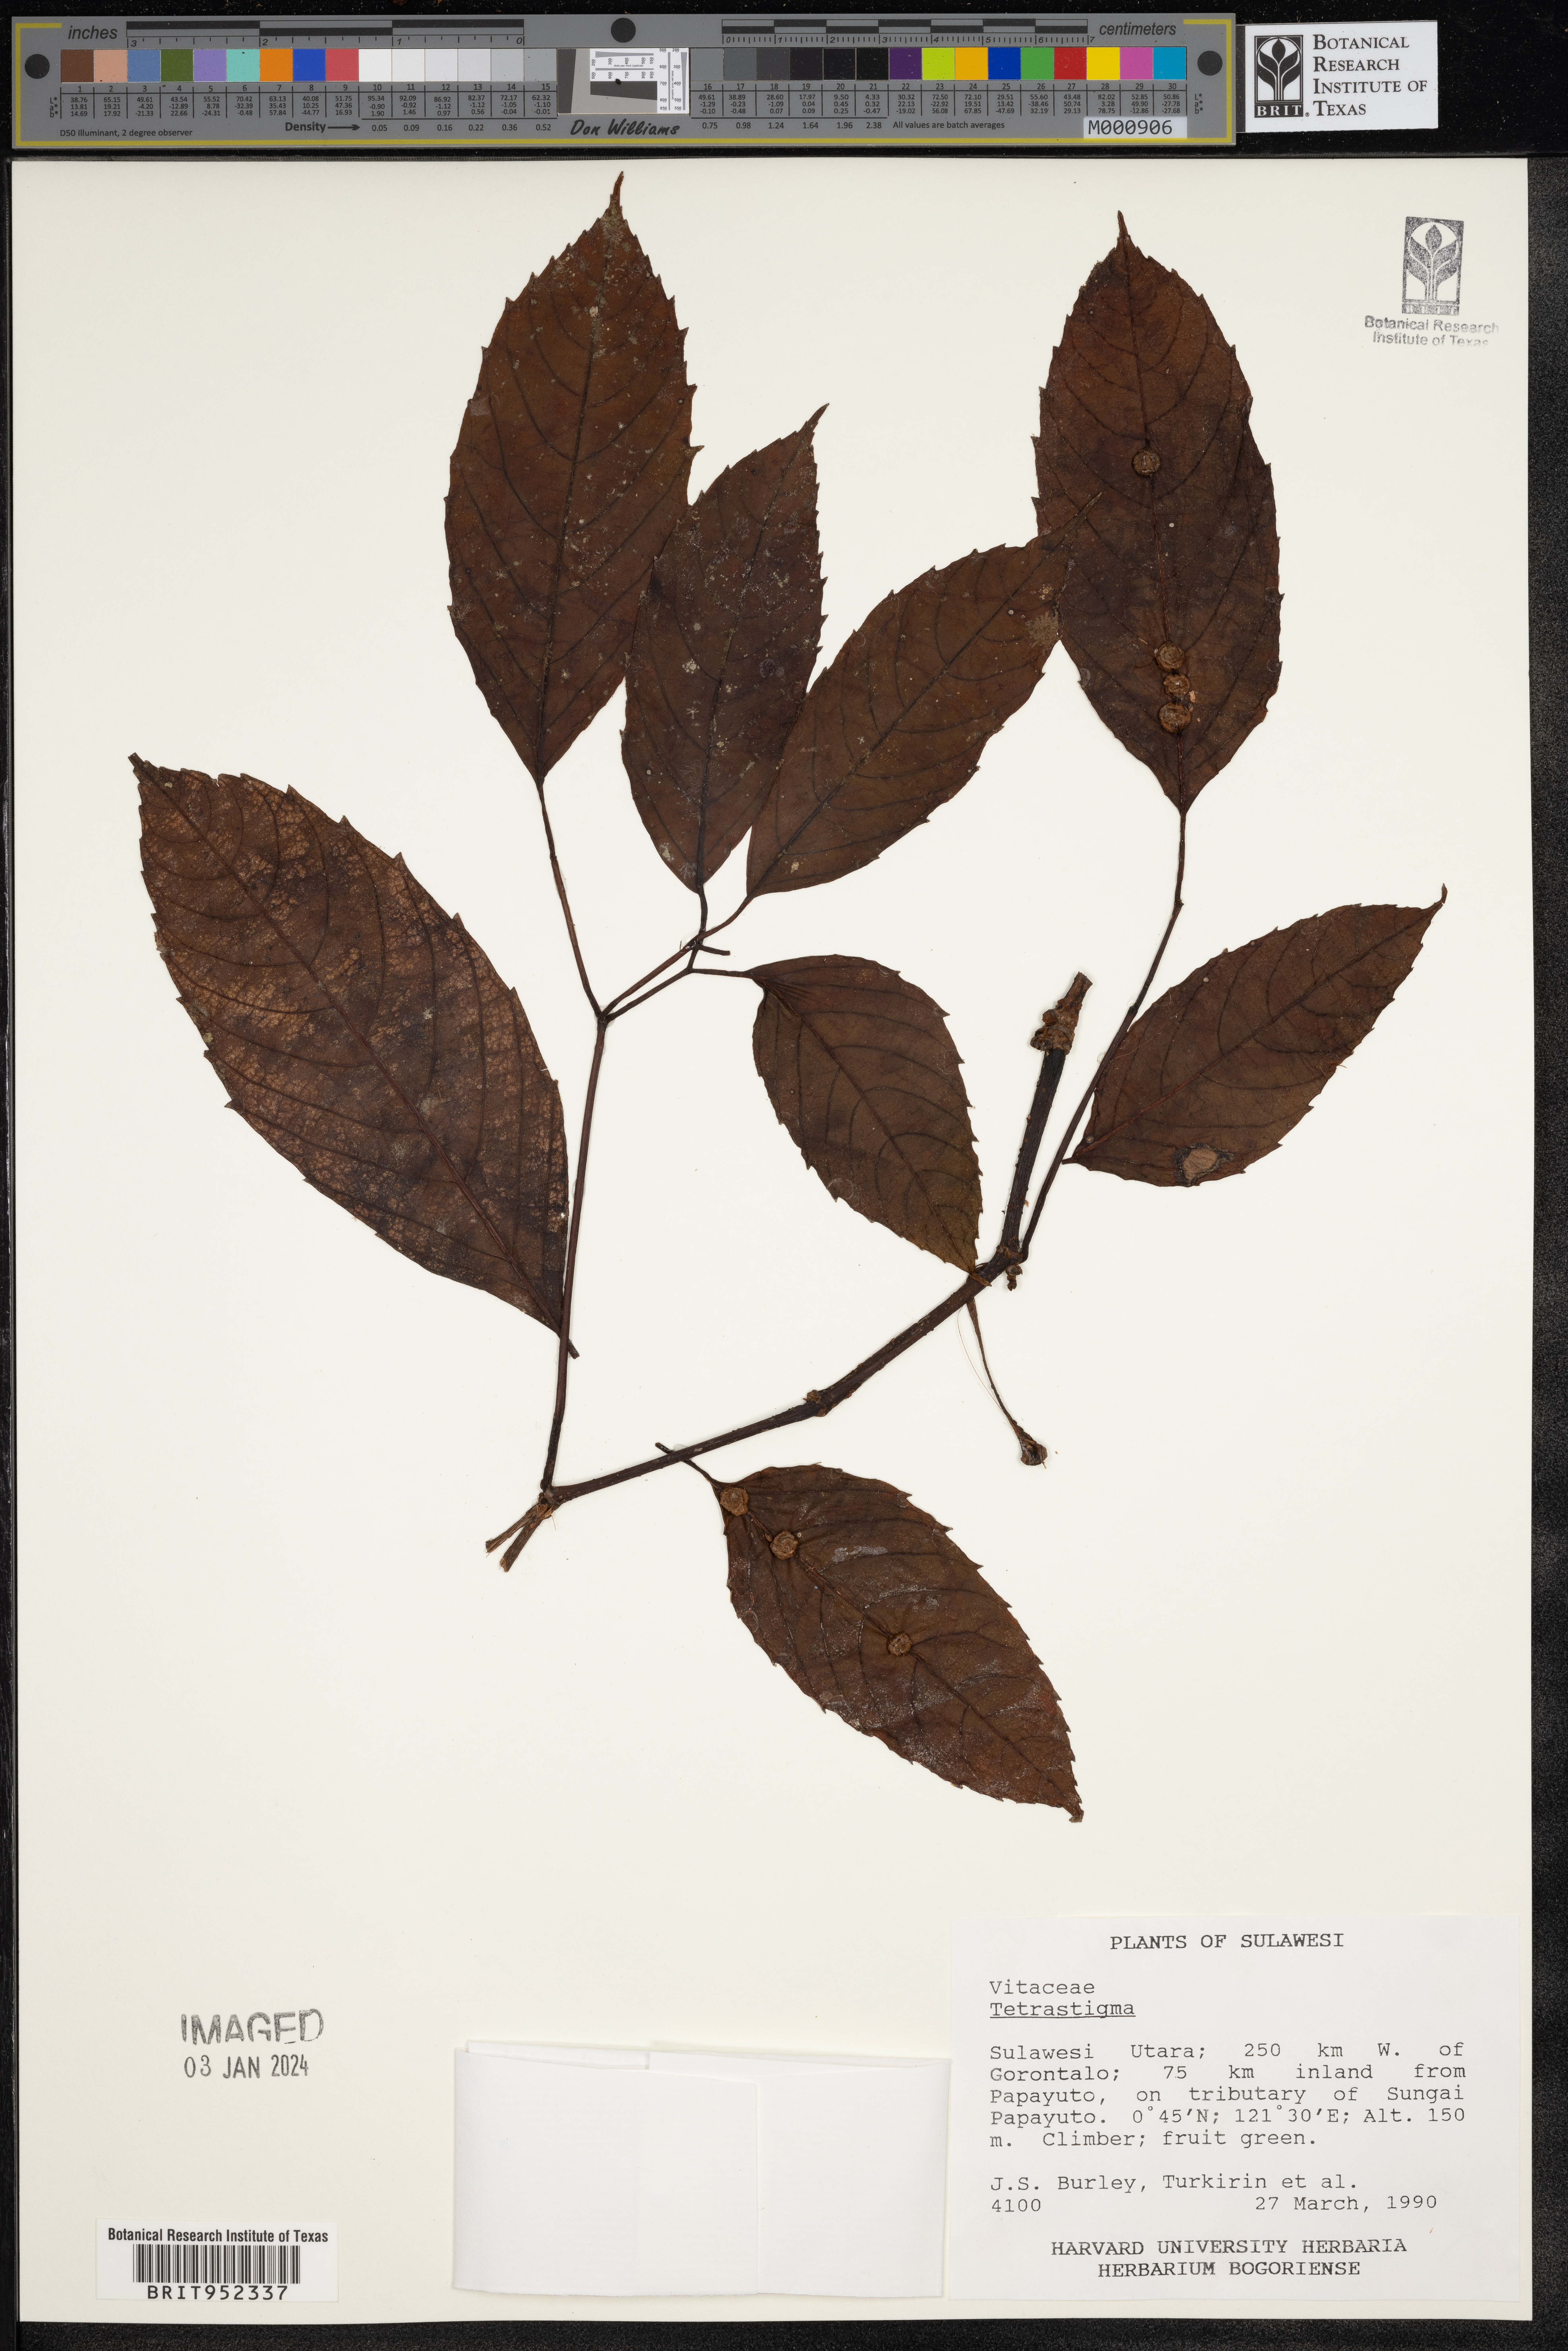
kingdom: Plantae
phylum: Tracheophyta
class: Magnoliopsida
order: Vitales
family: Vitaceae
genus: Tetrastigma
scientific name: Tetrastigma
